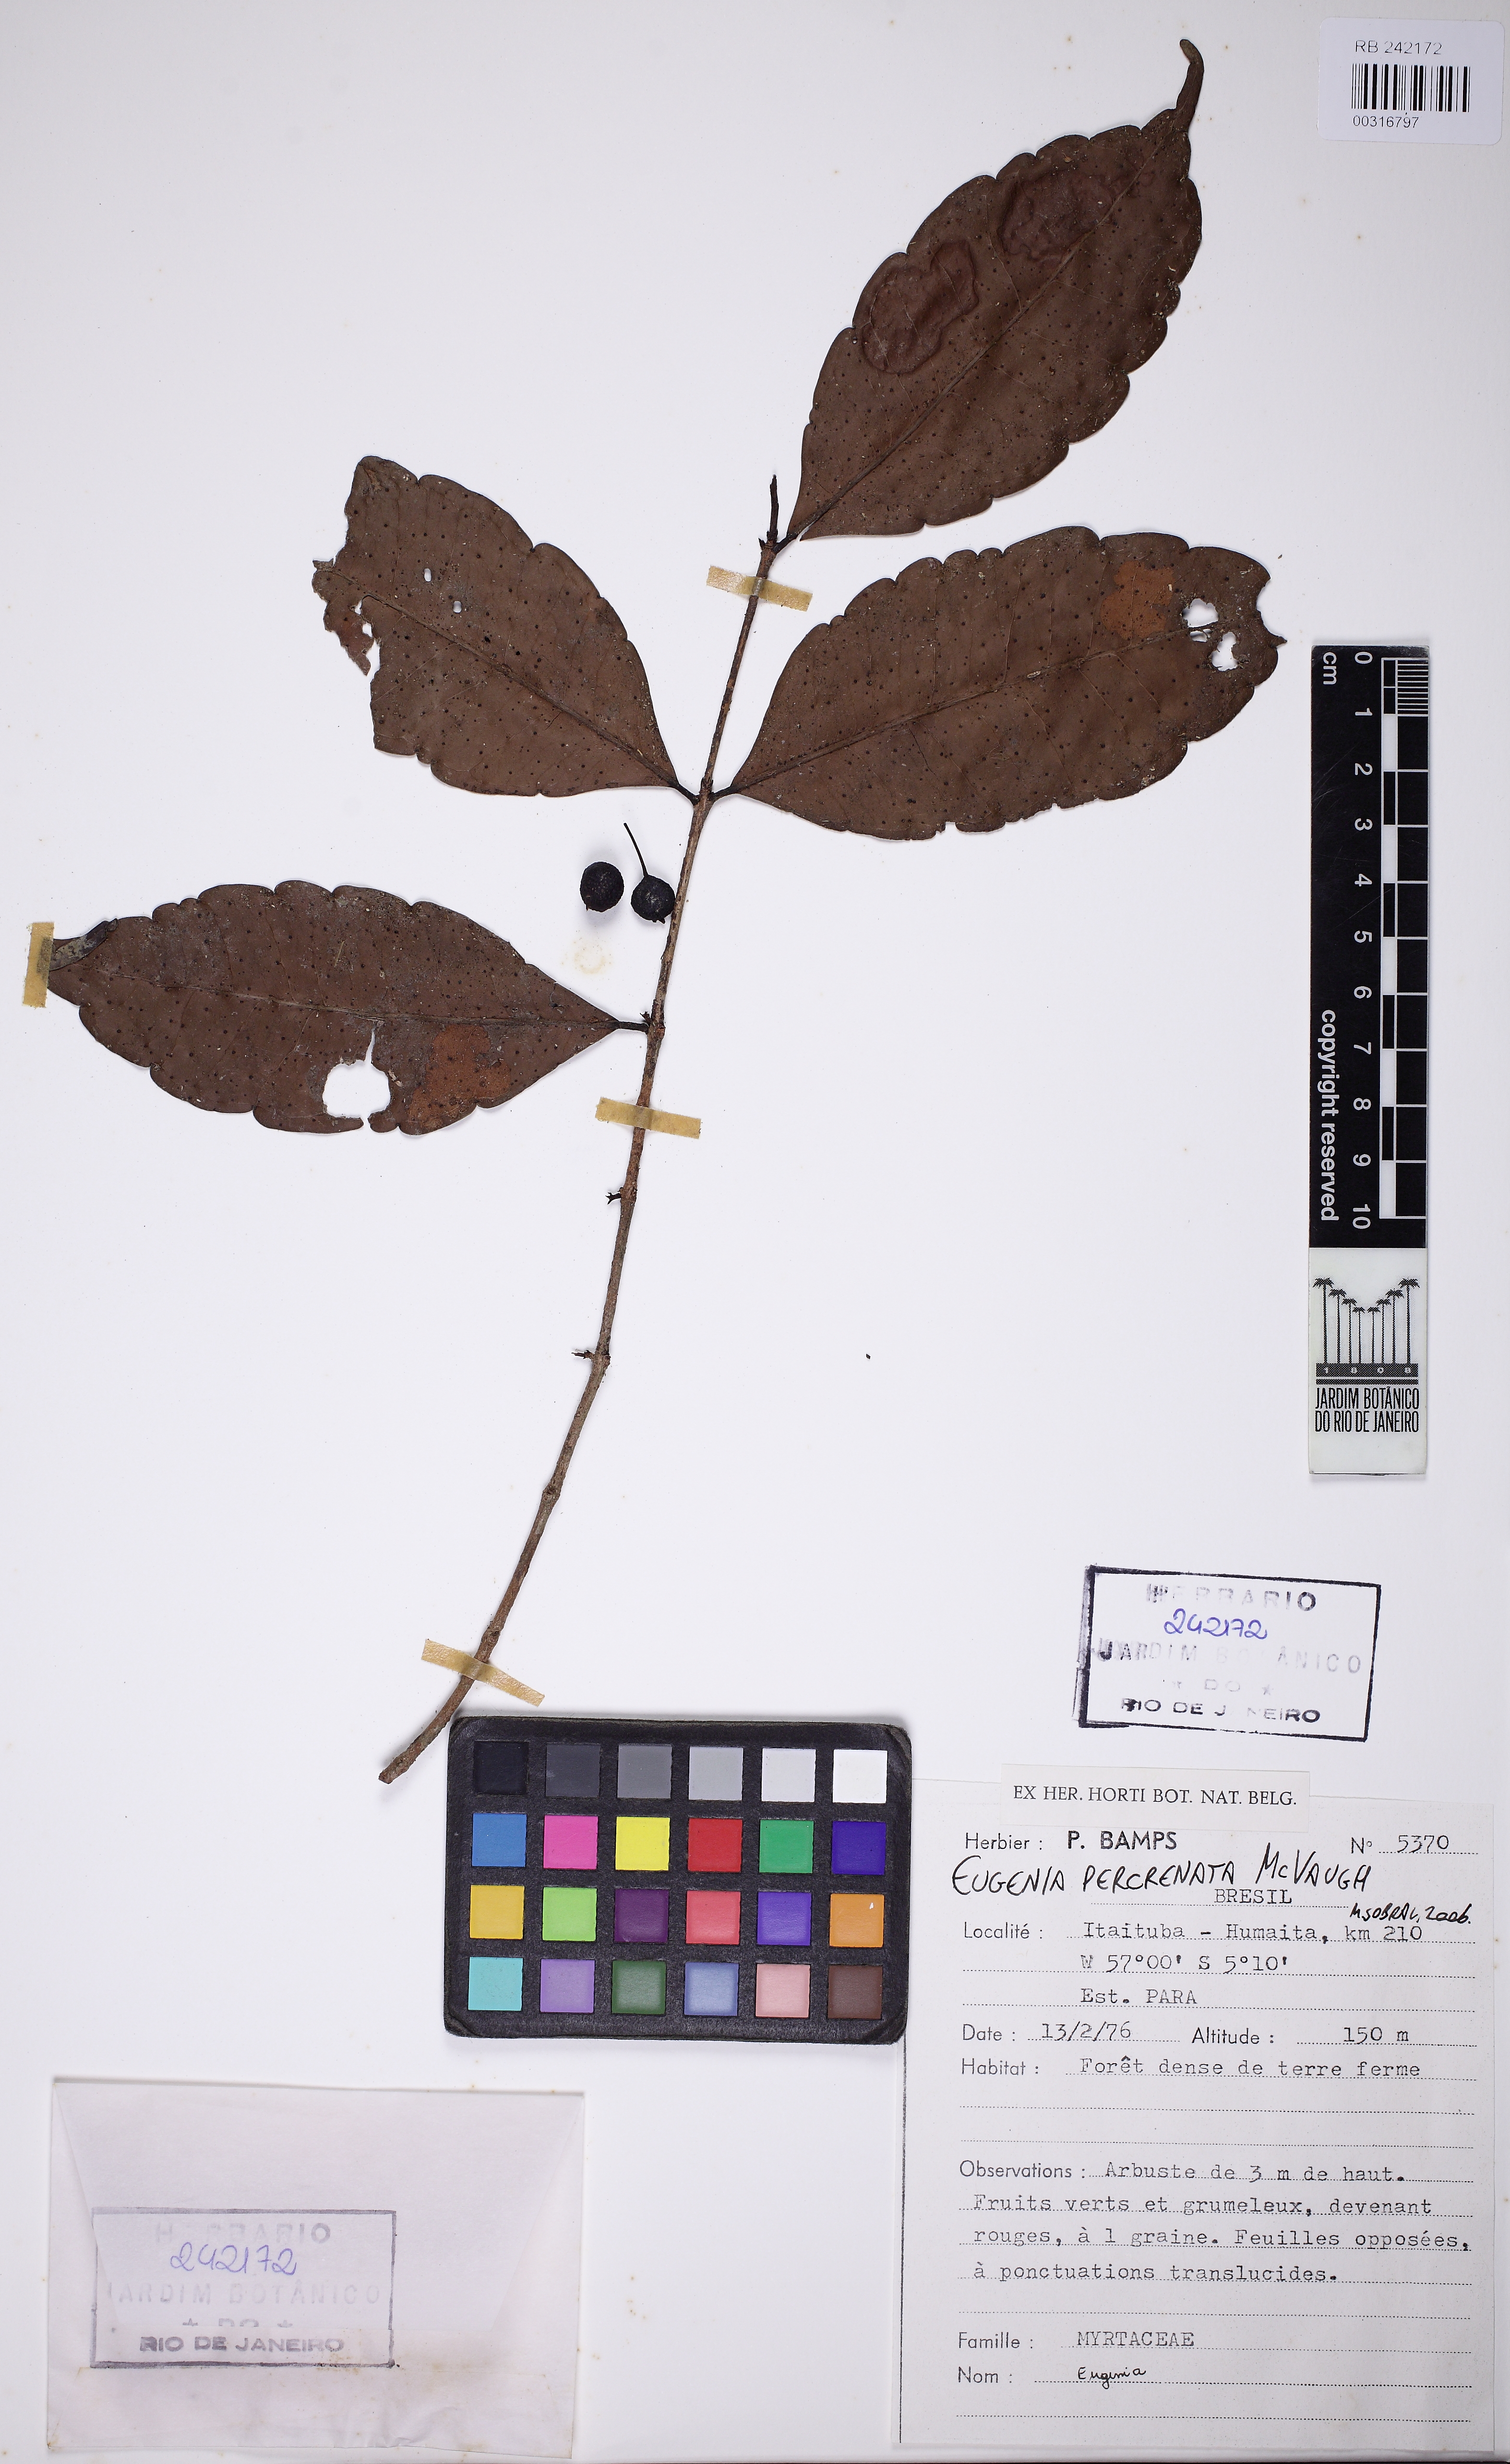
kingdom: Plantae
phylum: Tracheophyta
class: Magnoliopsida
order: Myrtales
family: Myrtaceae
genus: Eugenia
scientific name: Eugenia percrenata
